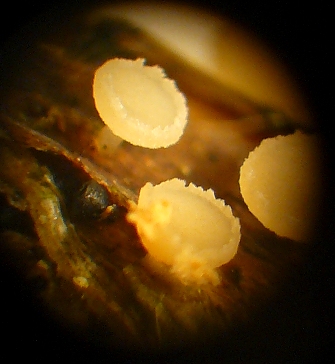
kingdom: Fungi
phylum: Ascomycota
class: Leotiomycetes
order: Helotiales
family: Helotiaceae
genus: Cyathicula
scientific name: Cyathicula cyathoidea
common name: pokal-stilkskive
